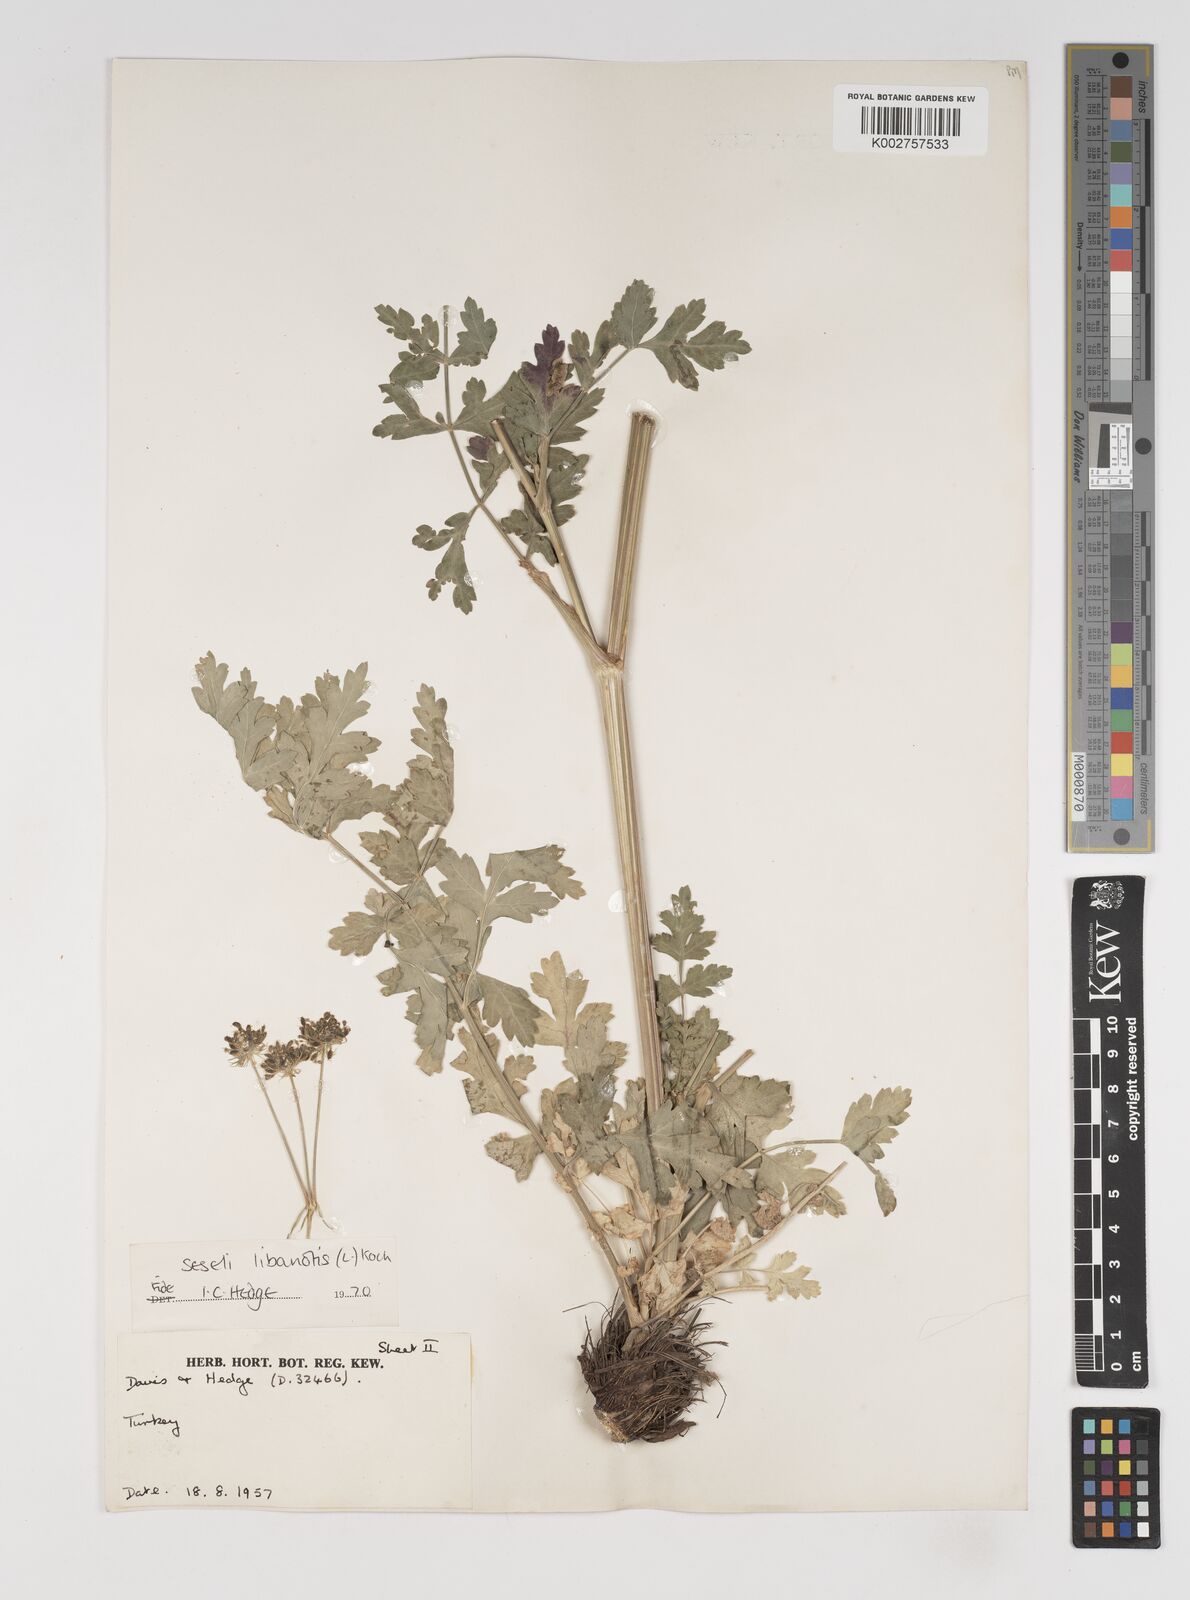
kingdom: Plantae
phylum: Tracheophyta
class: Magnoliopsida
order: Apiales
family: Apiaceae
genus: Seseli
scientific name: Seseli libanotis
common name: Mooncarrot
